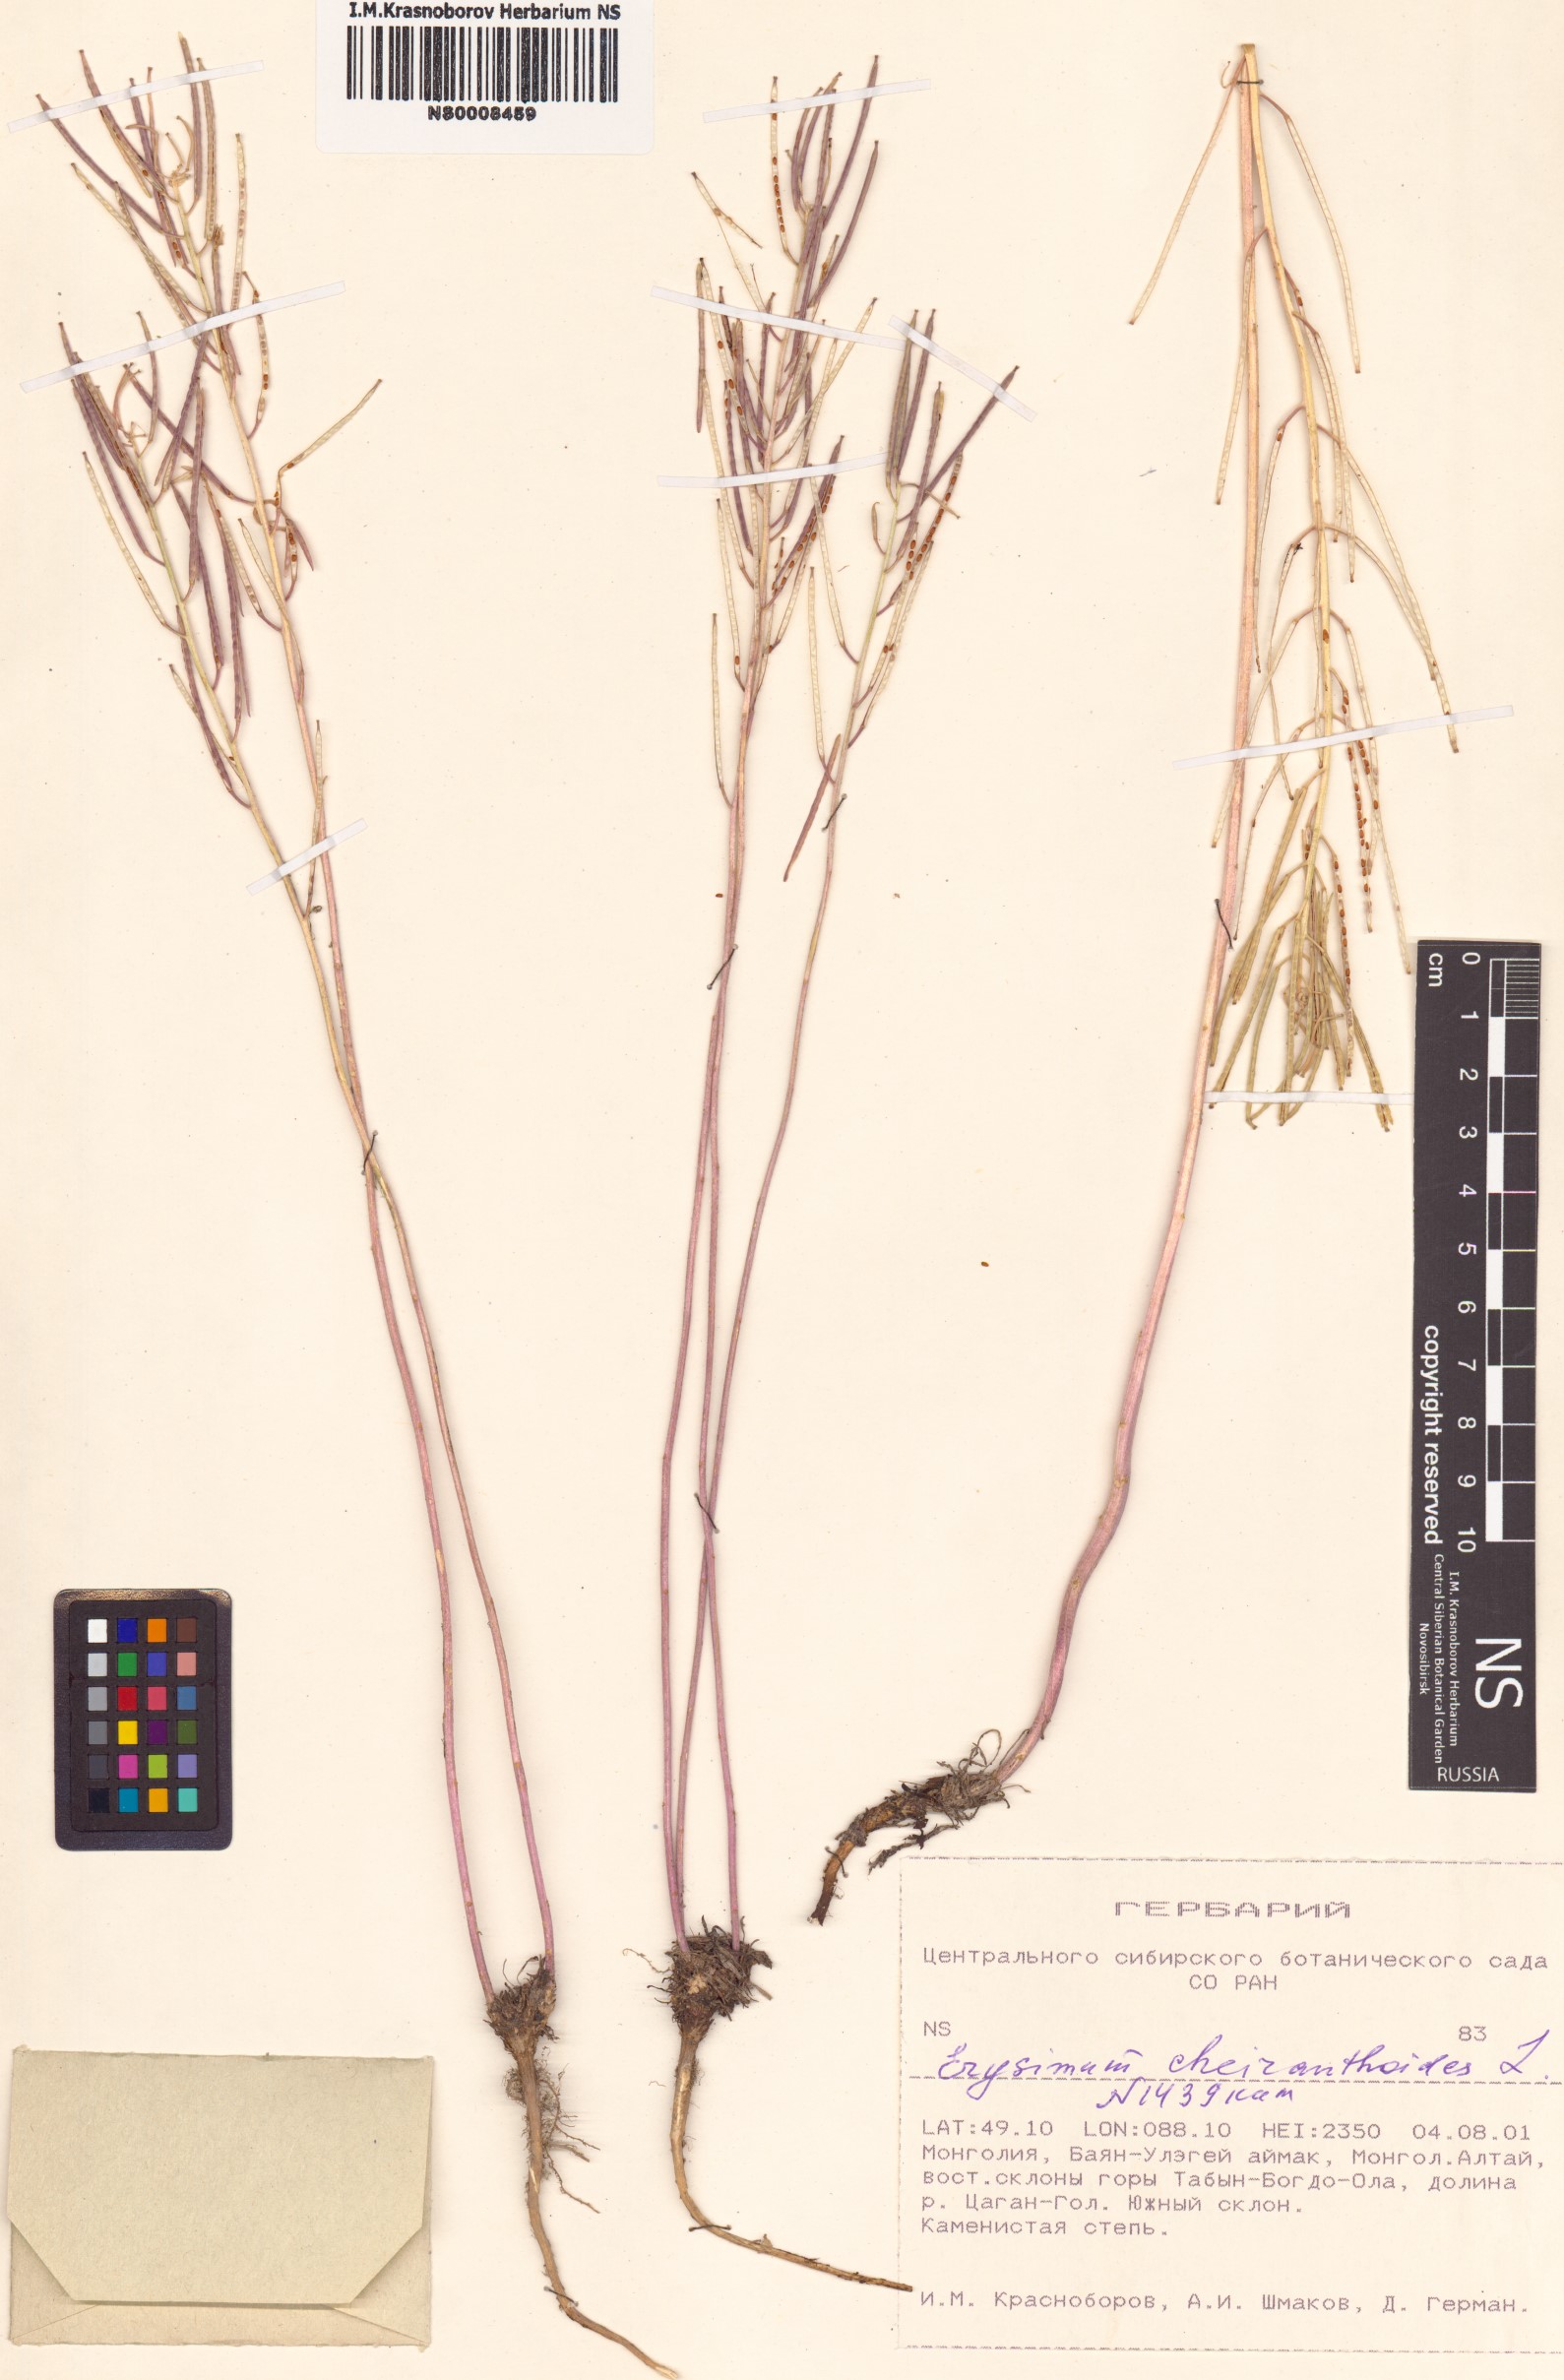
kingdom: Plantae
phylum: Tracheophyta
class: Magnoliopsida
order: Brassicales
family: Brassicaceae
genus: Erysimum
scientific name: Erysimum cheiranthoides
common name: Treacle mustard
